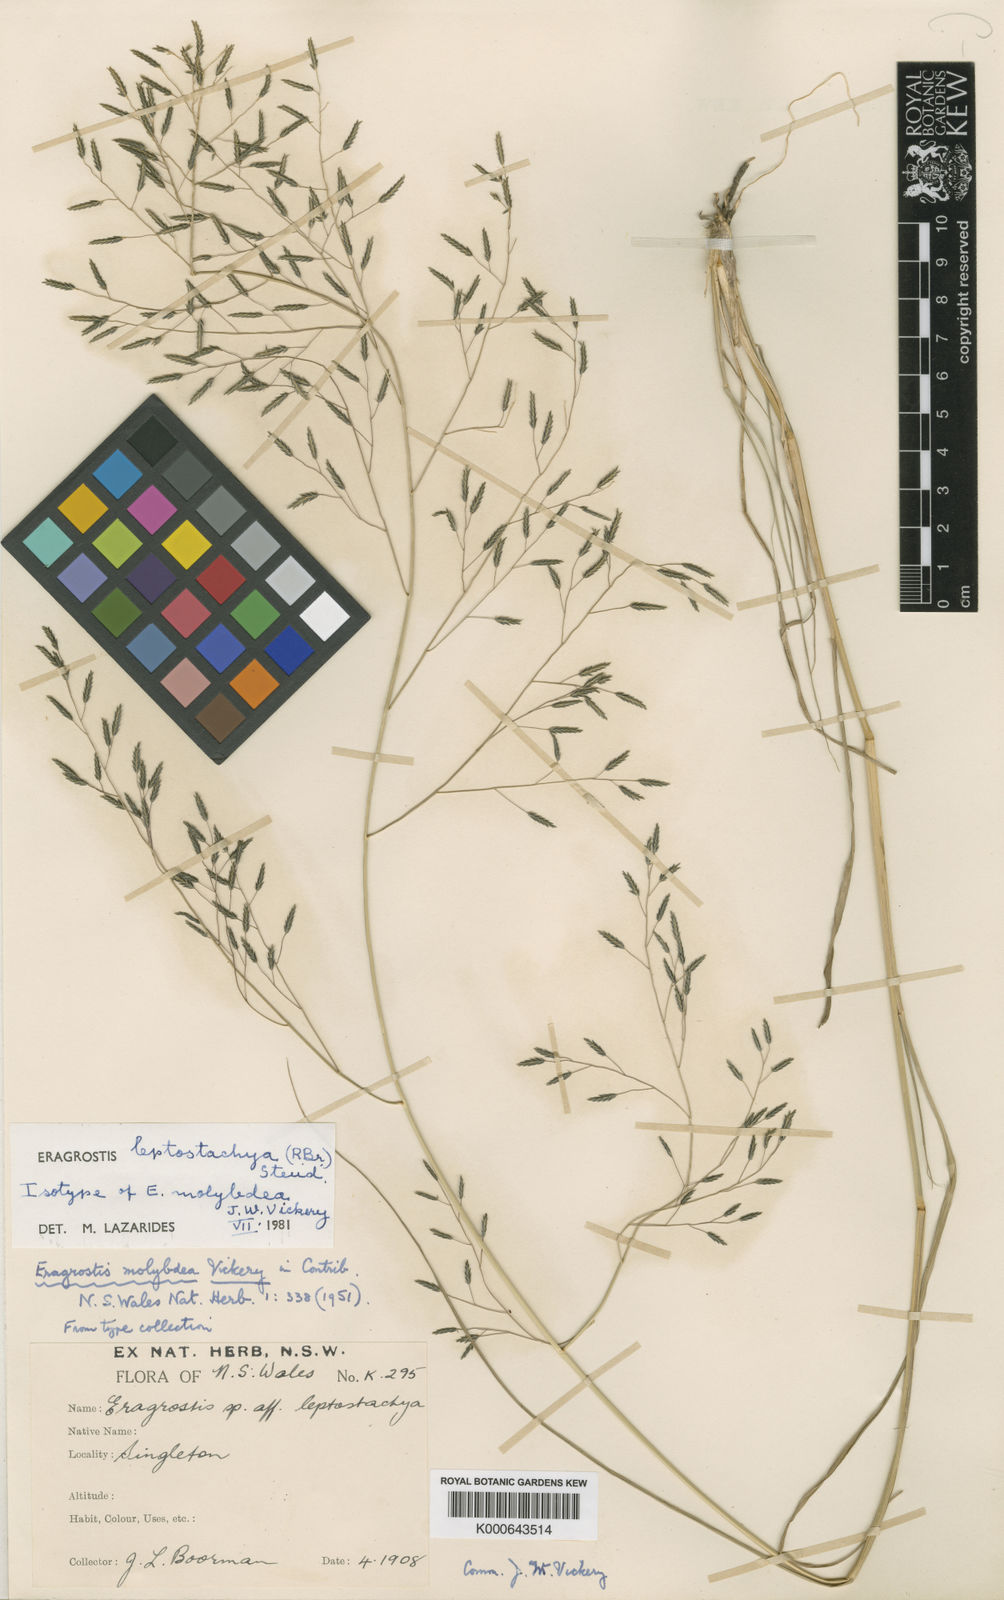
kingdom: Plantae
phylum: Tracheophyta
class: Liliopsida
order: Poales
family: Poaceae
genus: Eragrostis
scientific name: Eragrostis leptostachya
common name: Australian lovegrass
